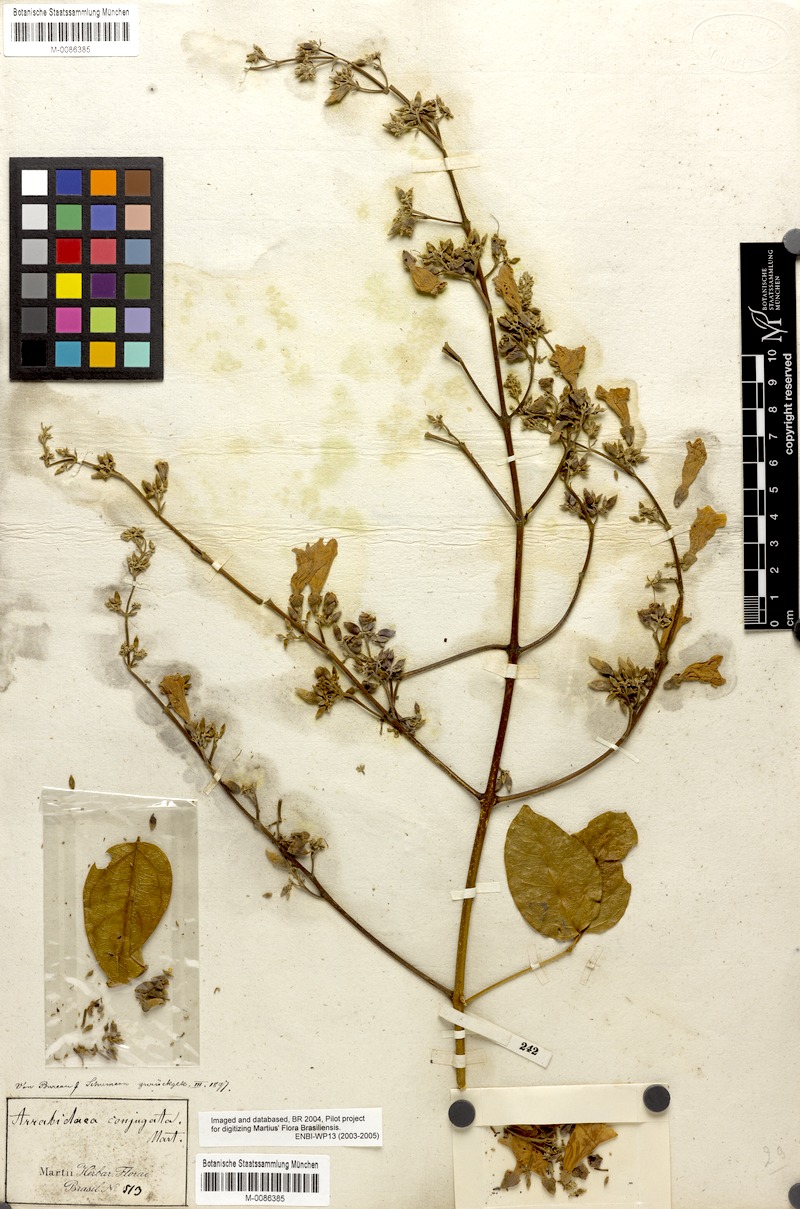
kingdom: Plantae
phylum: Tracheophyta
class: Magnoliopsida
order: Lamiales
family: Bignoniaceae
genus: Fridericia
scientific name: Fridericia conjugata
